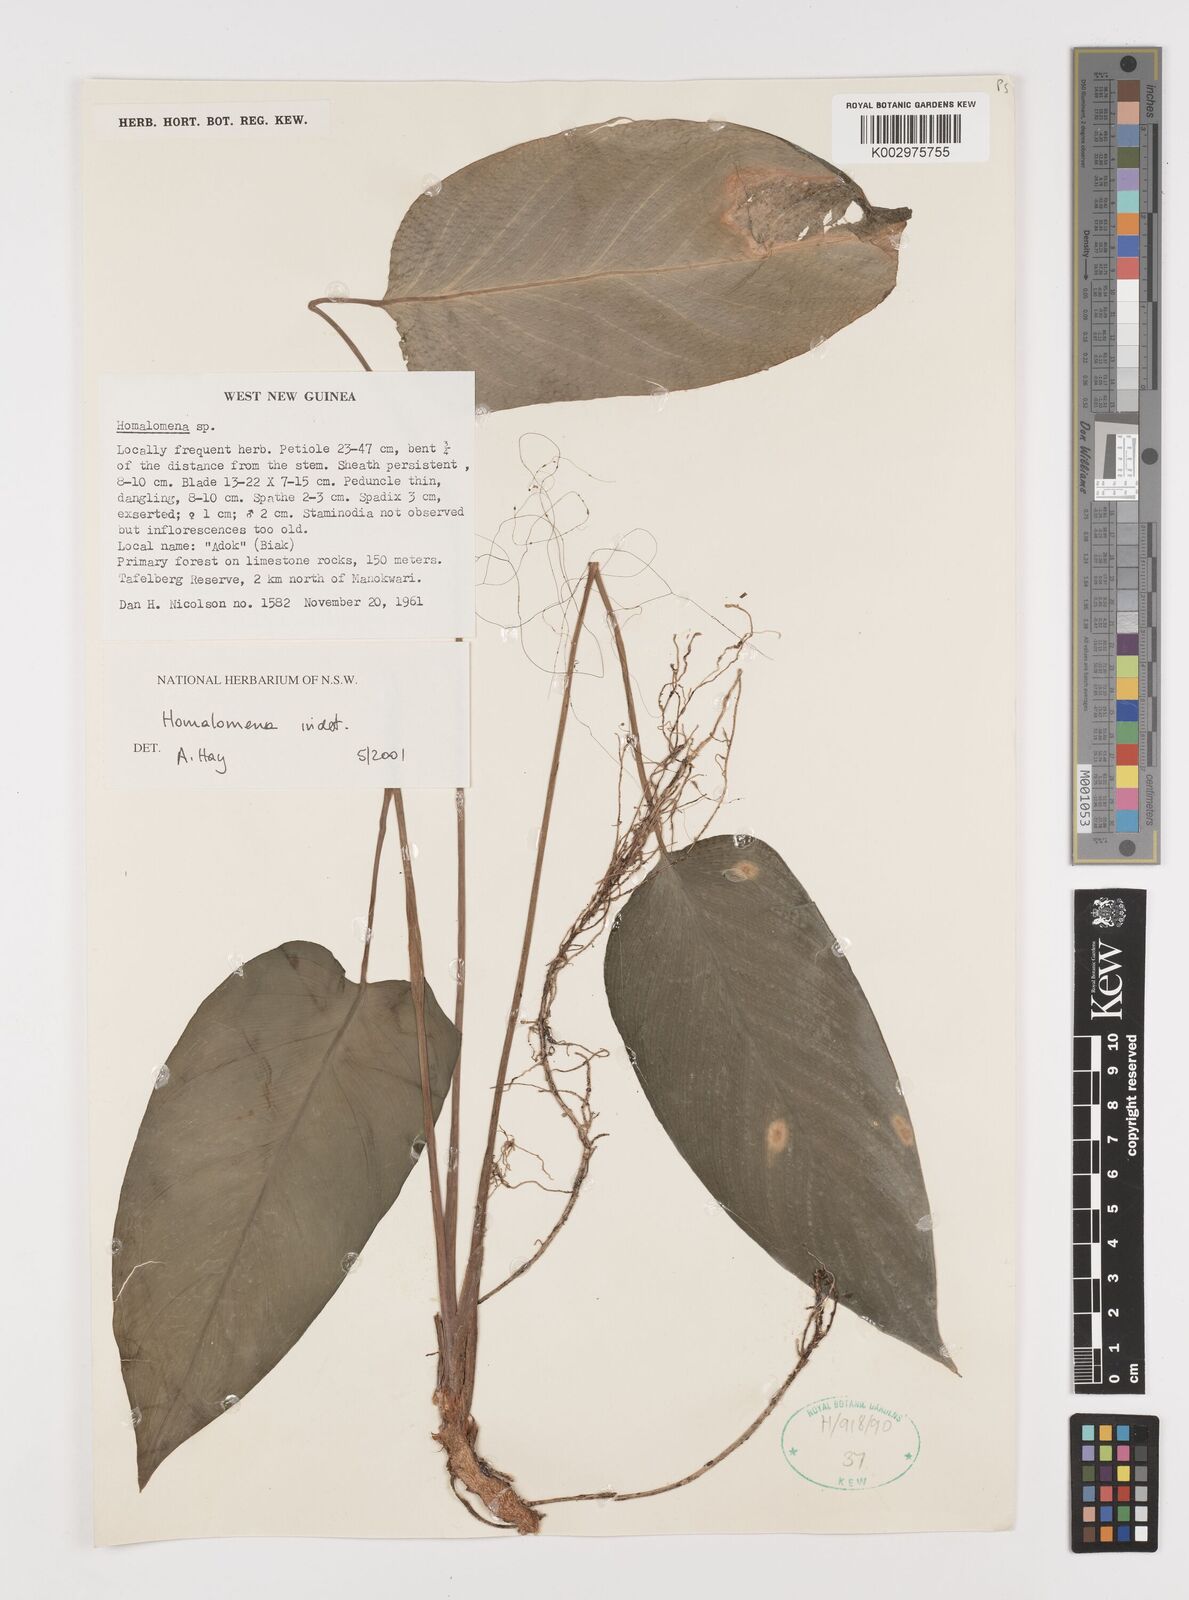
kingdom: Plantae
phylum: Tracheophyta
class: Liliopsida
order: Alismatales
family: Araceae
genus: Homalomena
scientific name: Homalomena
